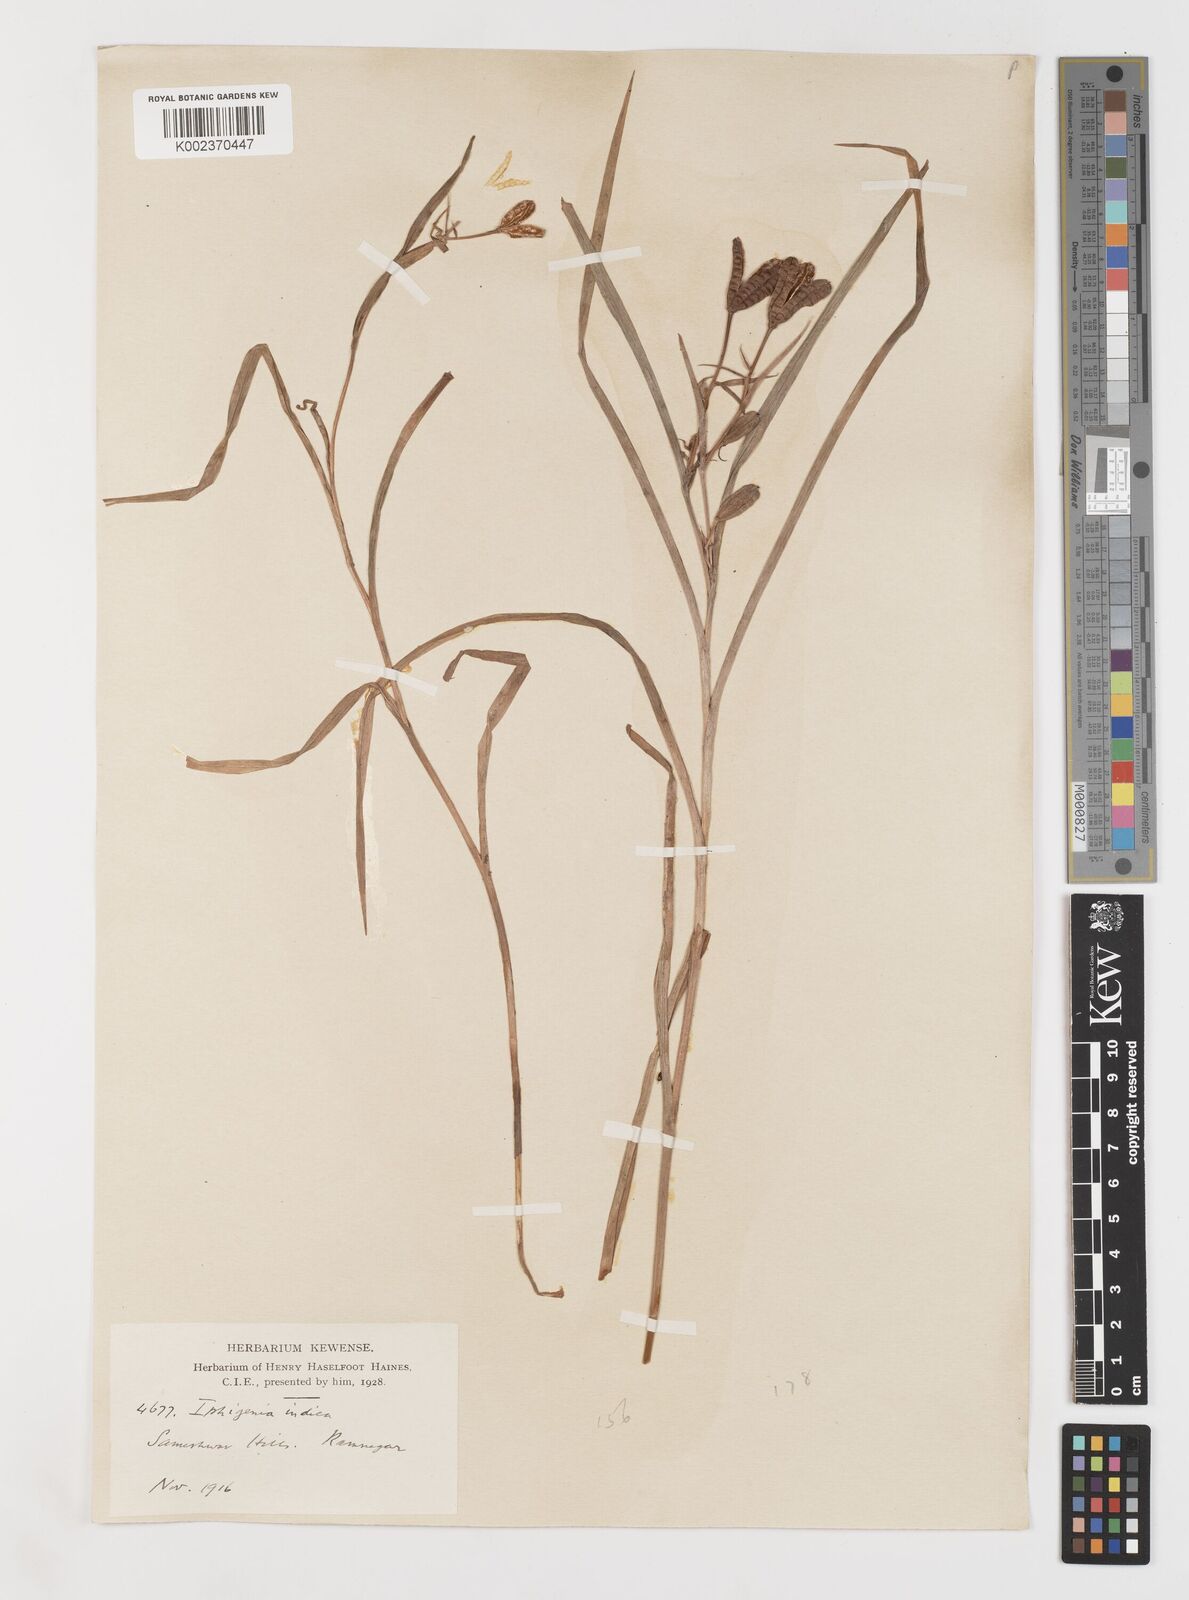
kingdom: Plantae
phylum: Tracheophyta
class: Liliopsida
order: Liliales
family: Colchicaceae
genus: Iphigenia
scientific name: Iphigenia indica
